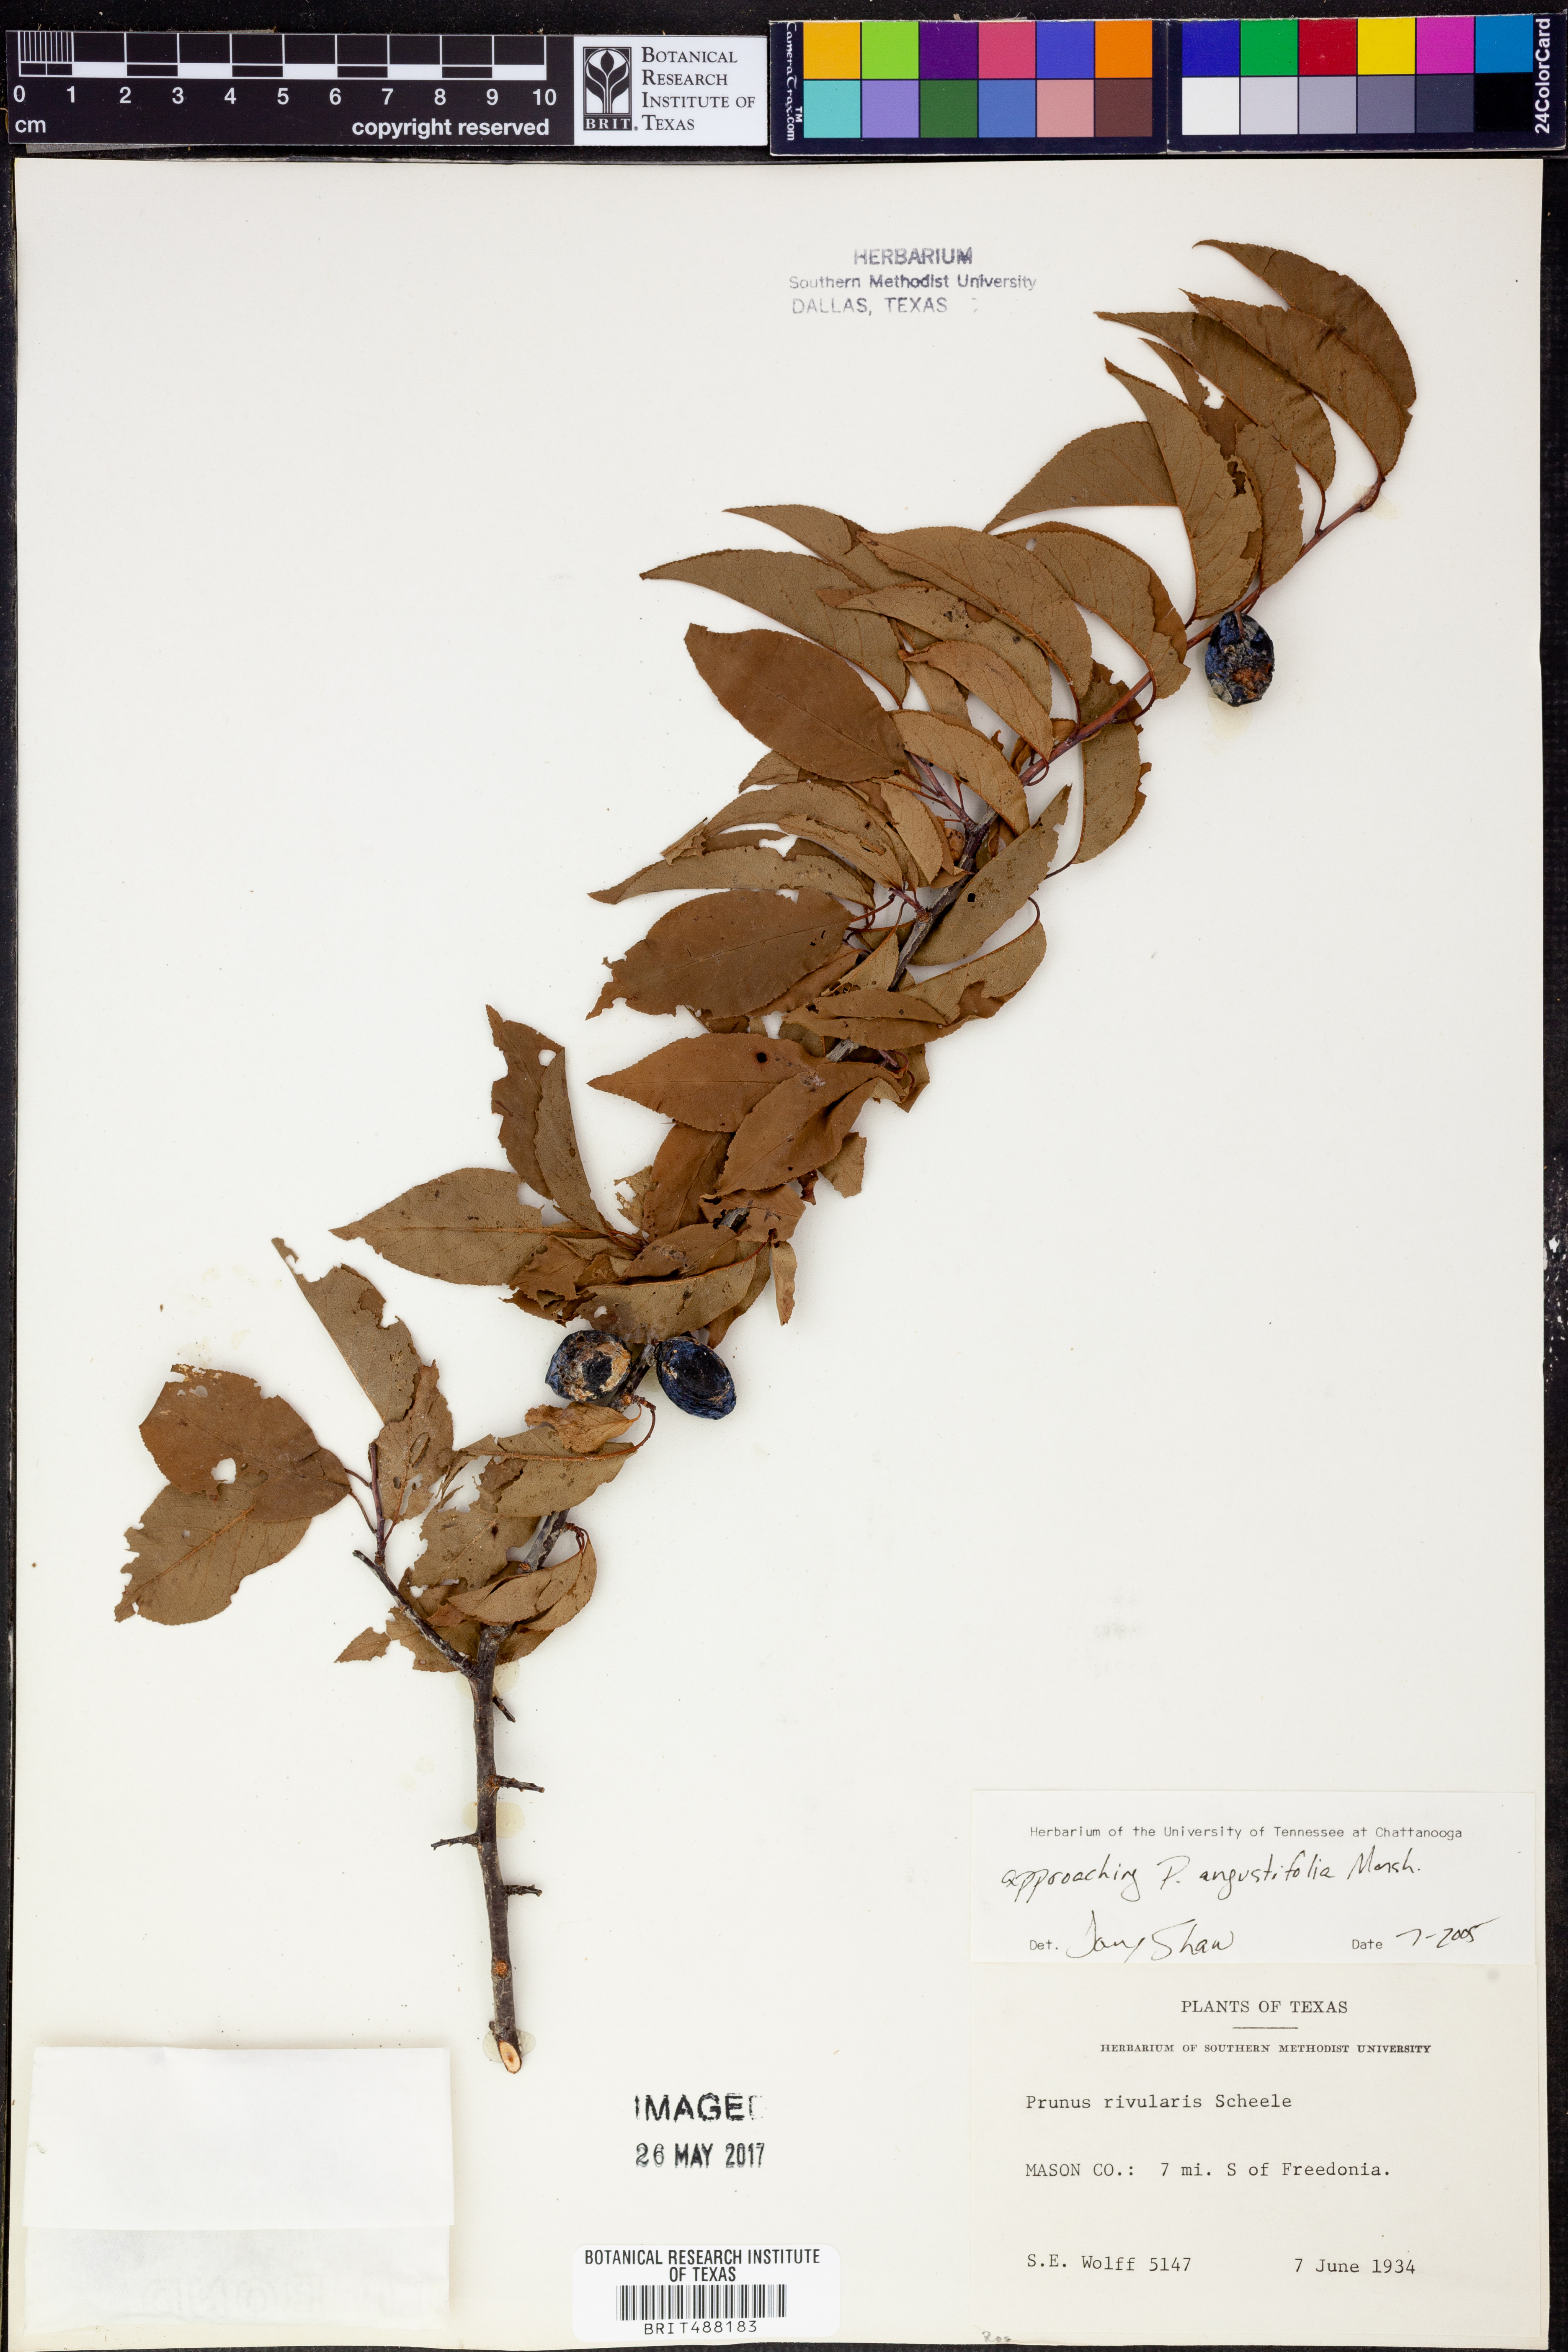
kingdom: Plantae
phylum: Tracheophyta
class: Magnoliopsida
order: Rosales
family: Rosaceae
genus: Prunus
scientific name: Prunus angustifolia
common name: Cherokee plum
